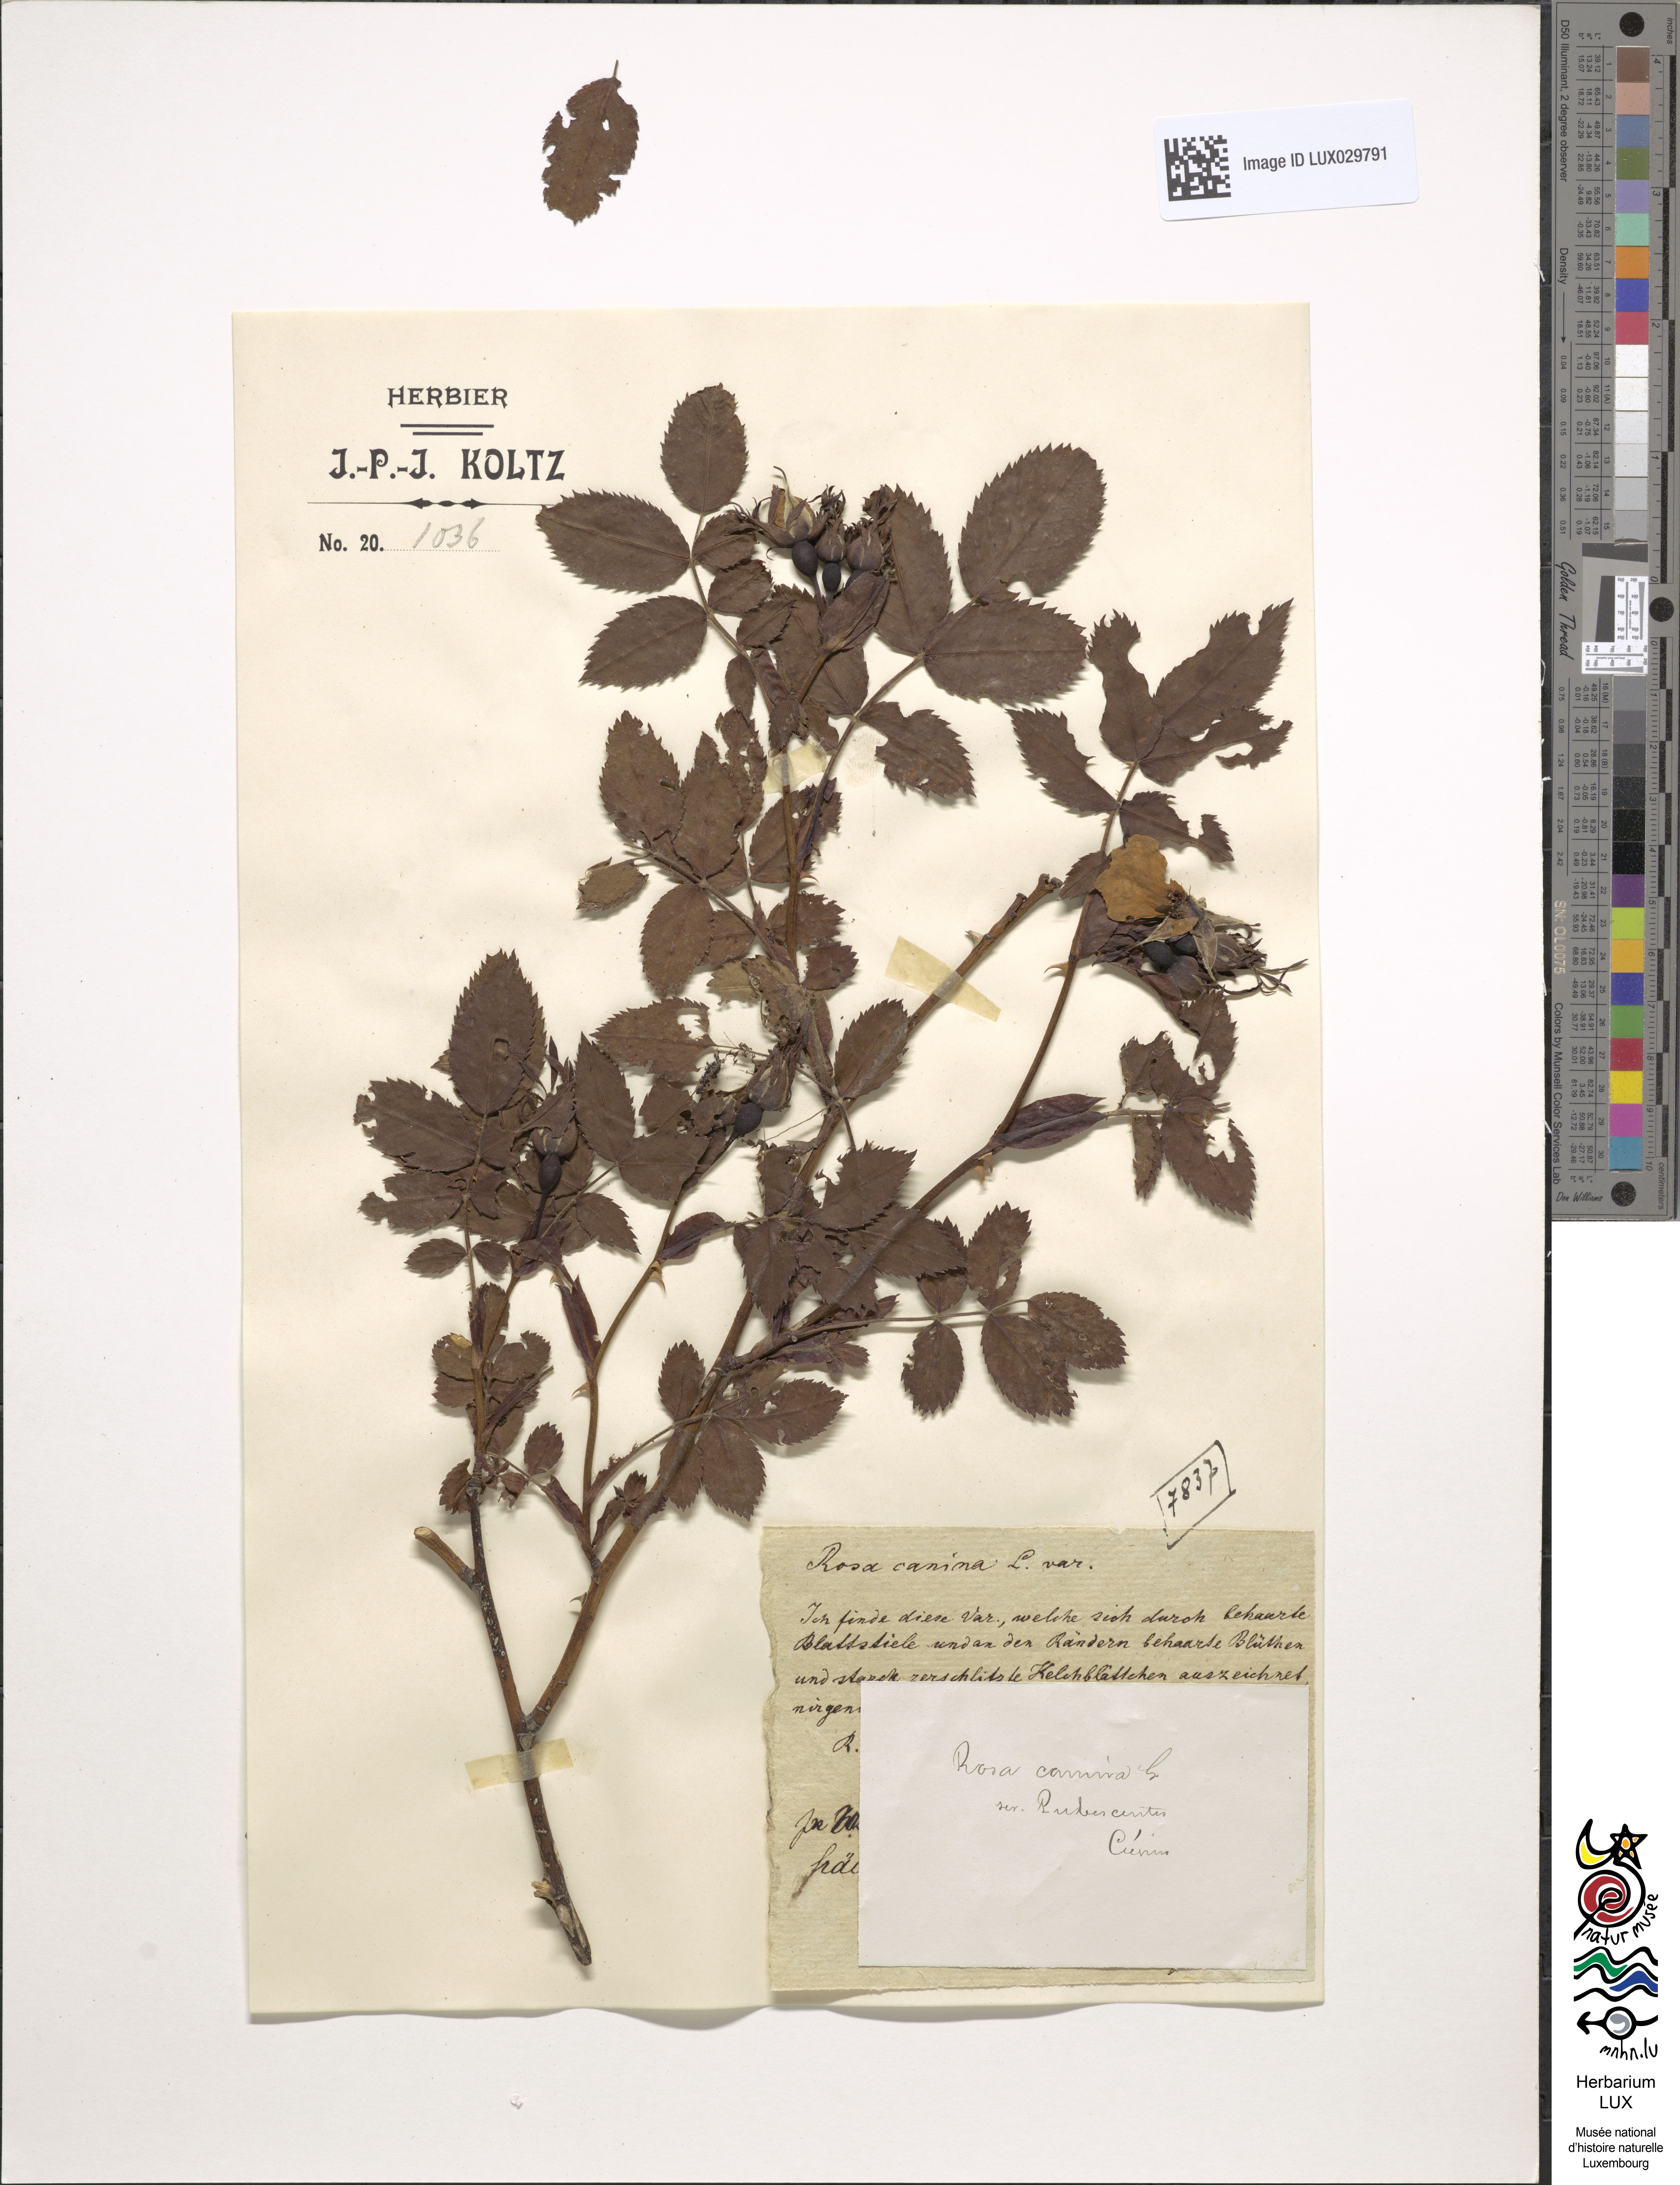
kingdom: Plantae
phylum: Tracheophyta
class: Magnoliopsida
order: Rosales
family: Rosaceae
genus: Rosa
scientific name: Rosa canina
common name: Dog rose
